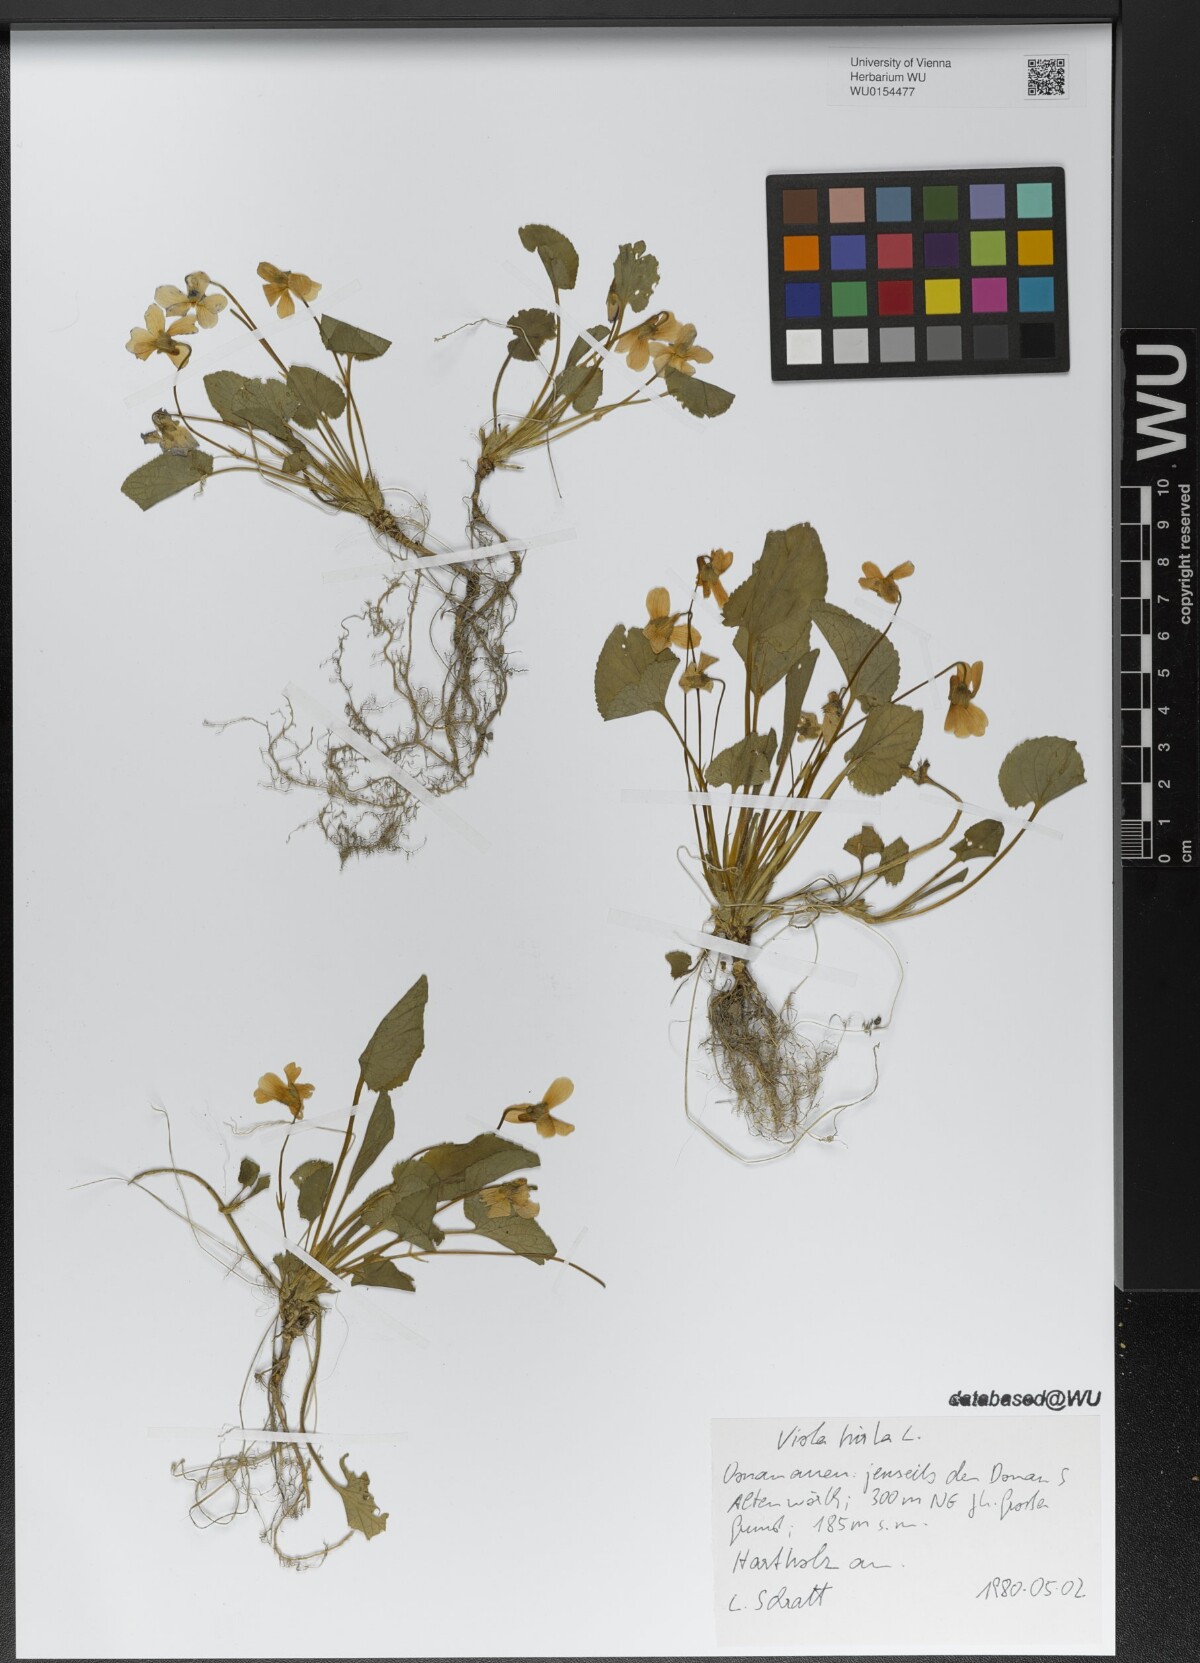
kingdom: Plantae
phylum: Tracheophyta
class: Magnoliopsida
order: Malpighiales
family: Violaceae
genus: Viola
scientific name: Viola hirta
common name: Hairy violet
